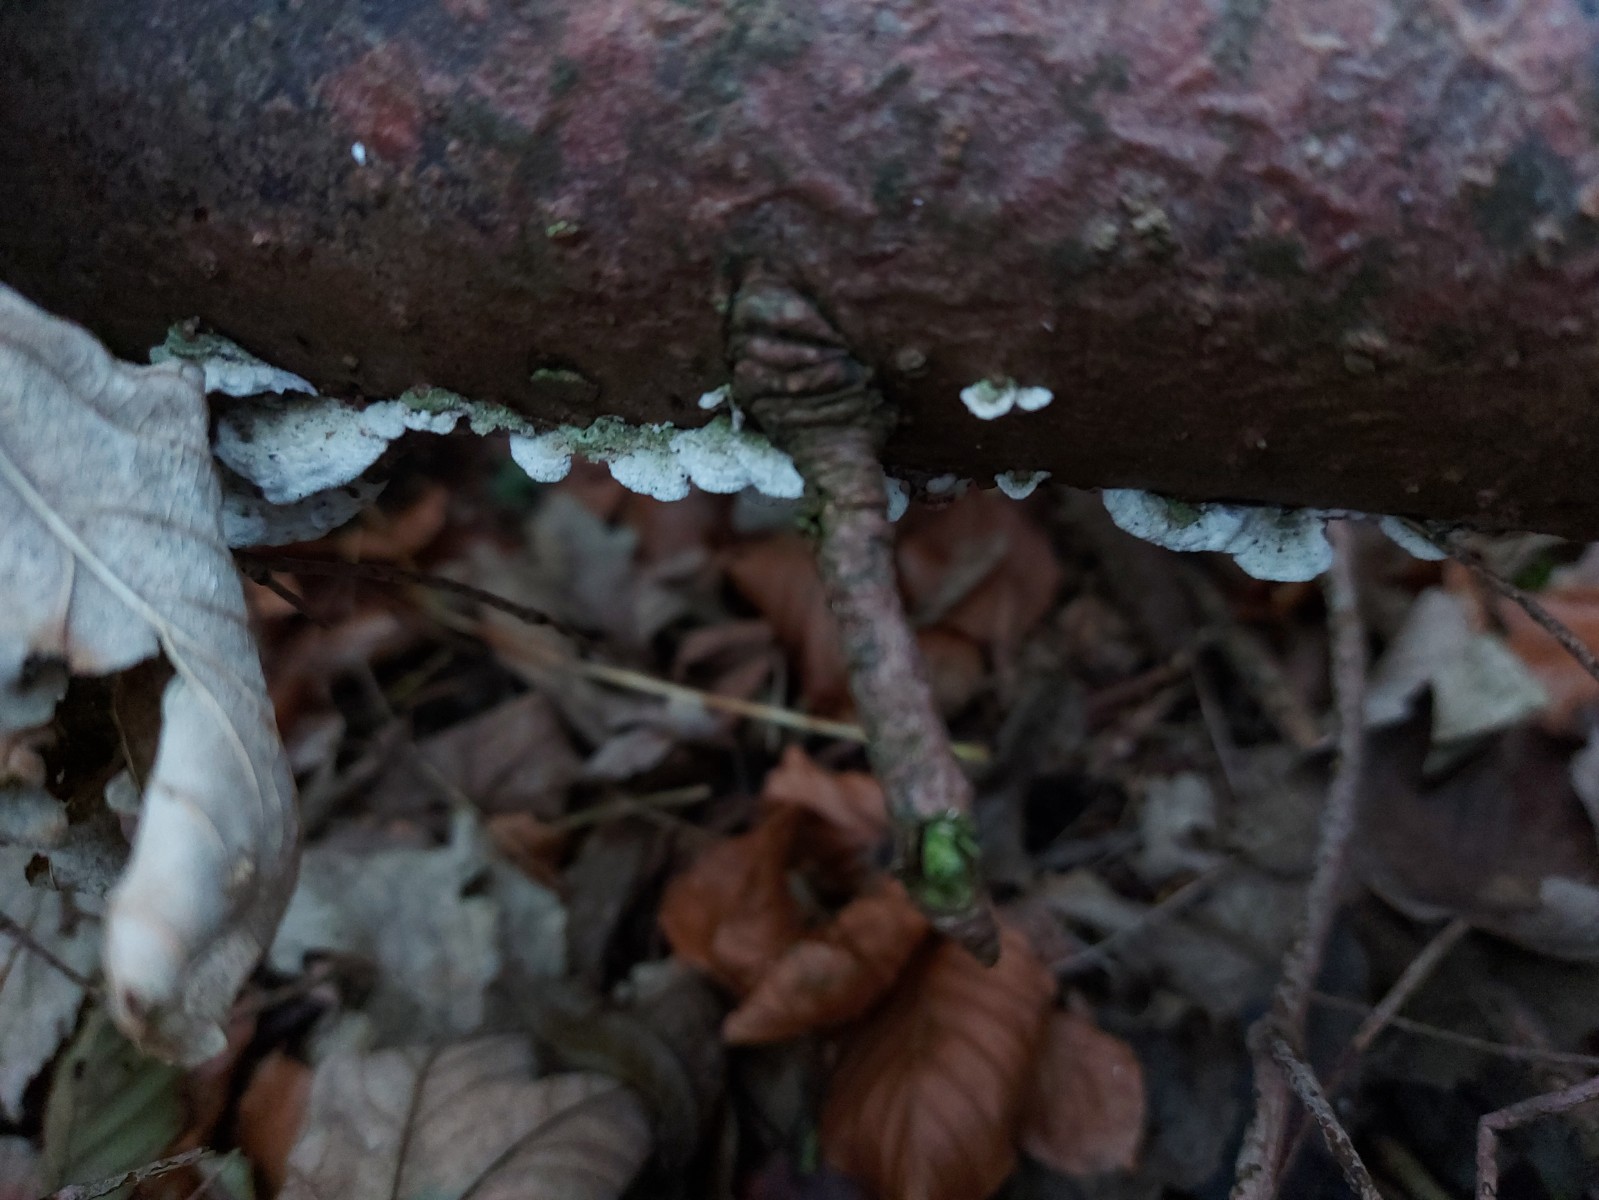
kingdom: Fungi
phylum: Basidiomycota
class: Agaricomycetes
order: Hymenochaetales
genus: Trichaptum
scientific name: Trichaptum abietinum
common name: almindelig violporesvamp
